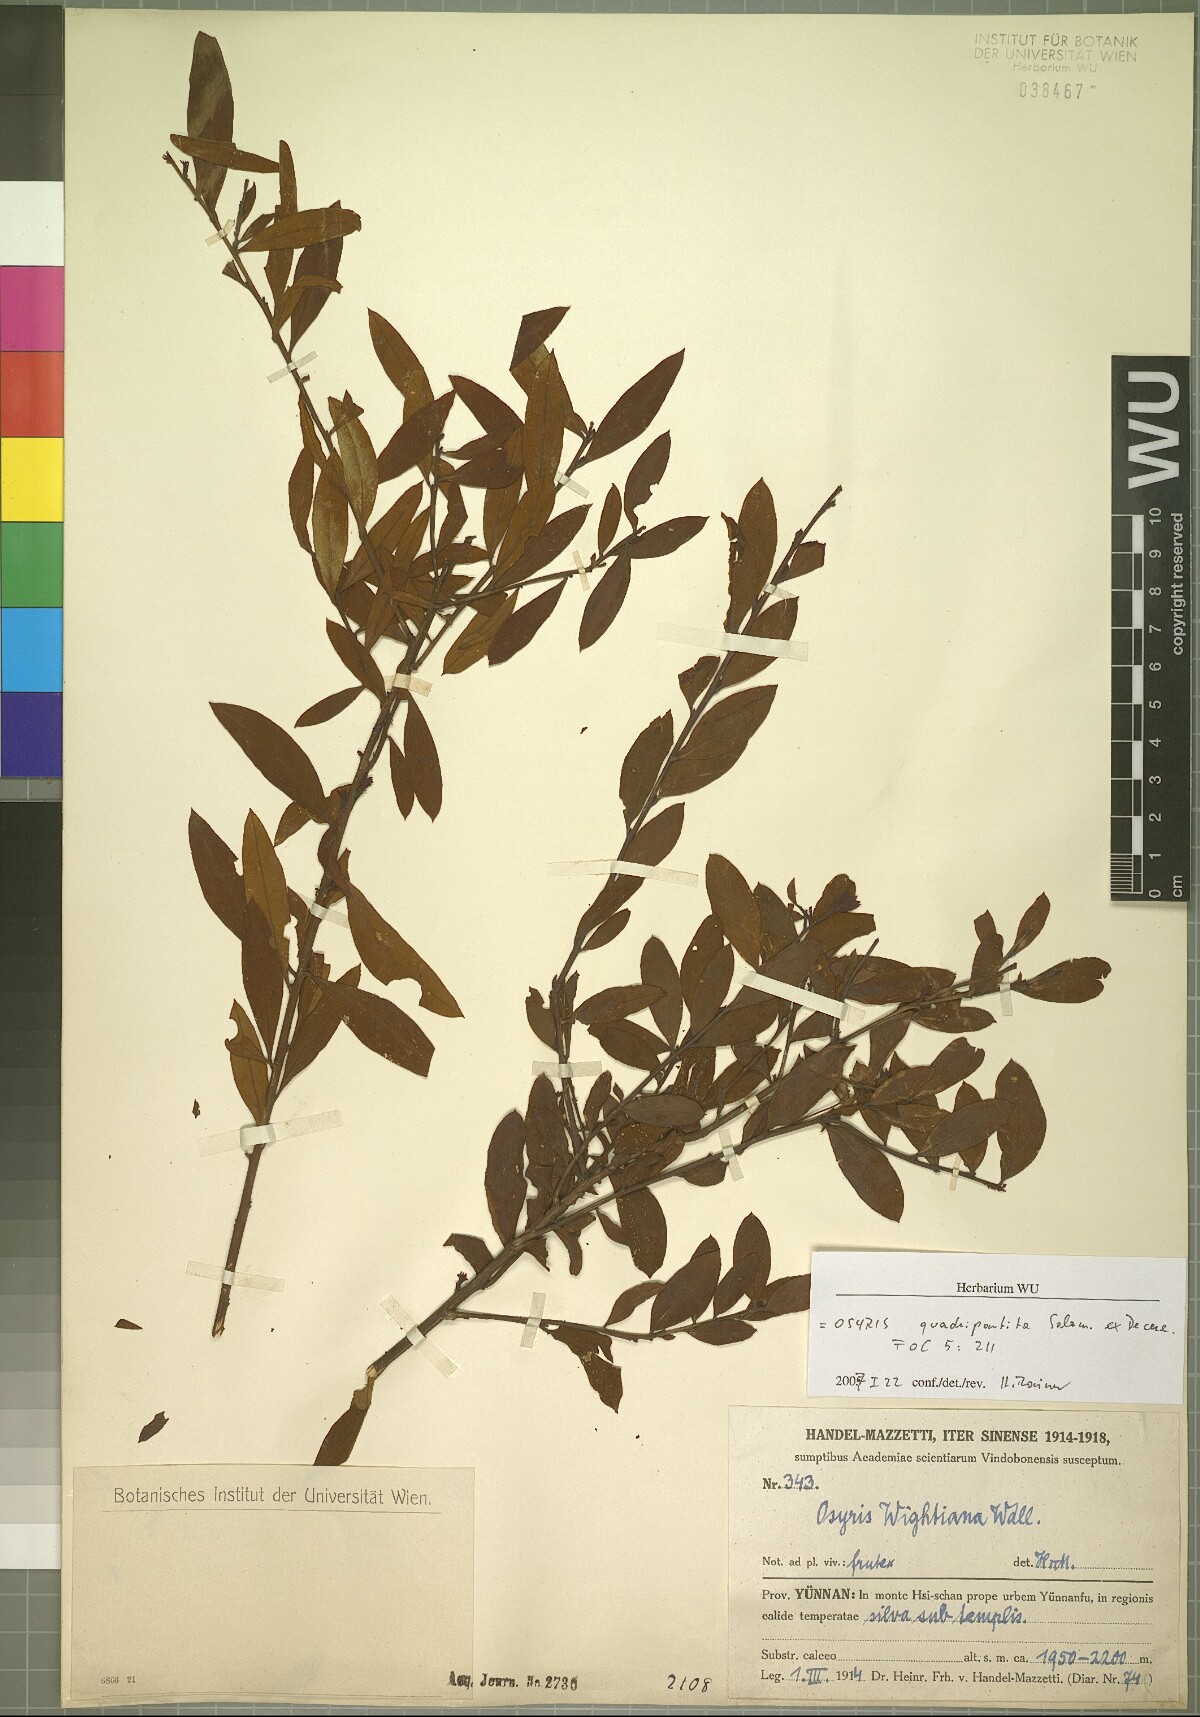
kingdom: Plantae
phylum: Tracheophyta
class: Magnoliopsida
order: Santalales
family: Santalaceae
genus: Osyris
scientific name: Osyris quadripartita
